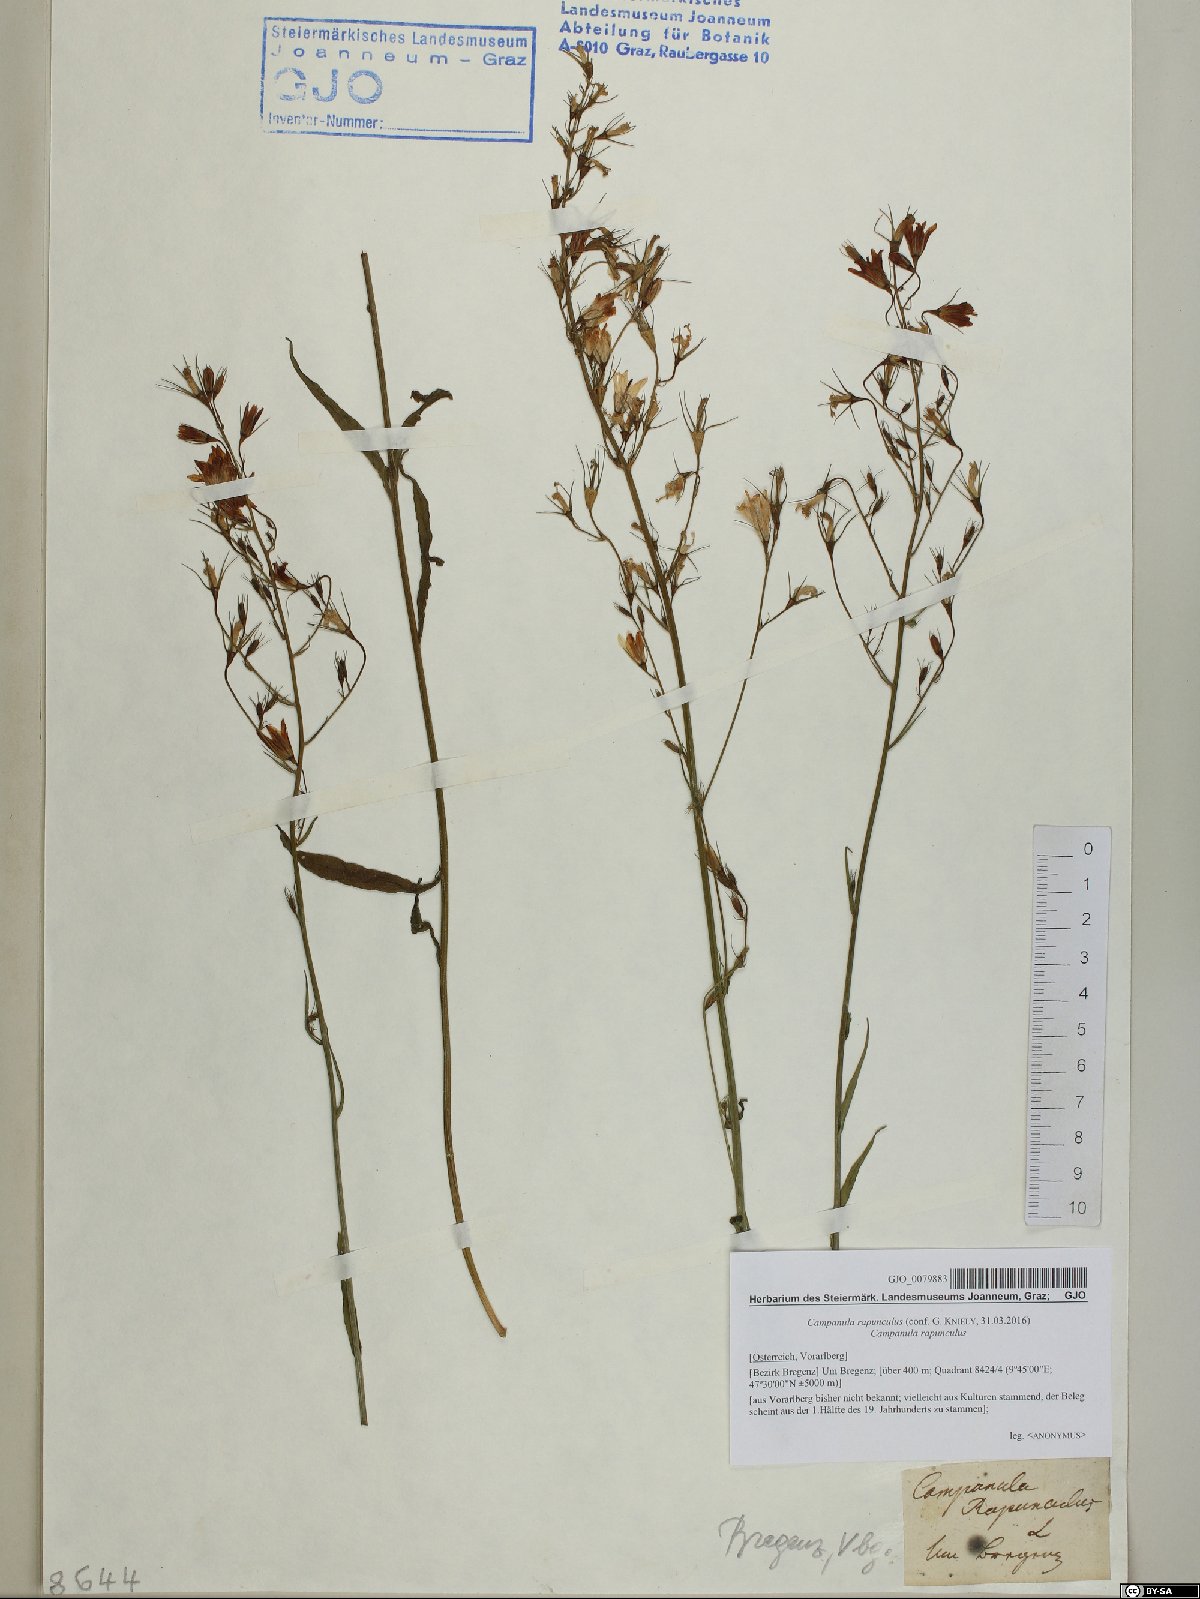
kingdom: Plantae
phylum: Tracheophyta
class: Magnoliopsida
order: Asterales
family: Campanulaceae
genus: Campanula
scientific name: Campanula rapunculus
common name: Rampion bellflower
